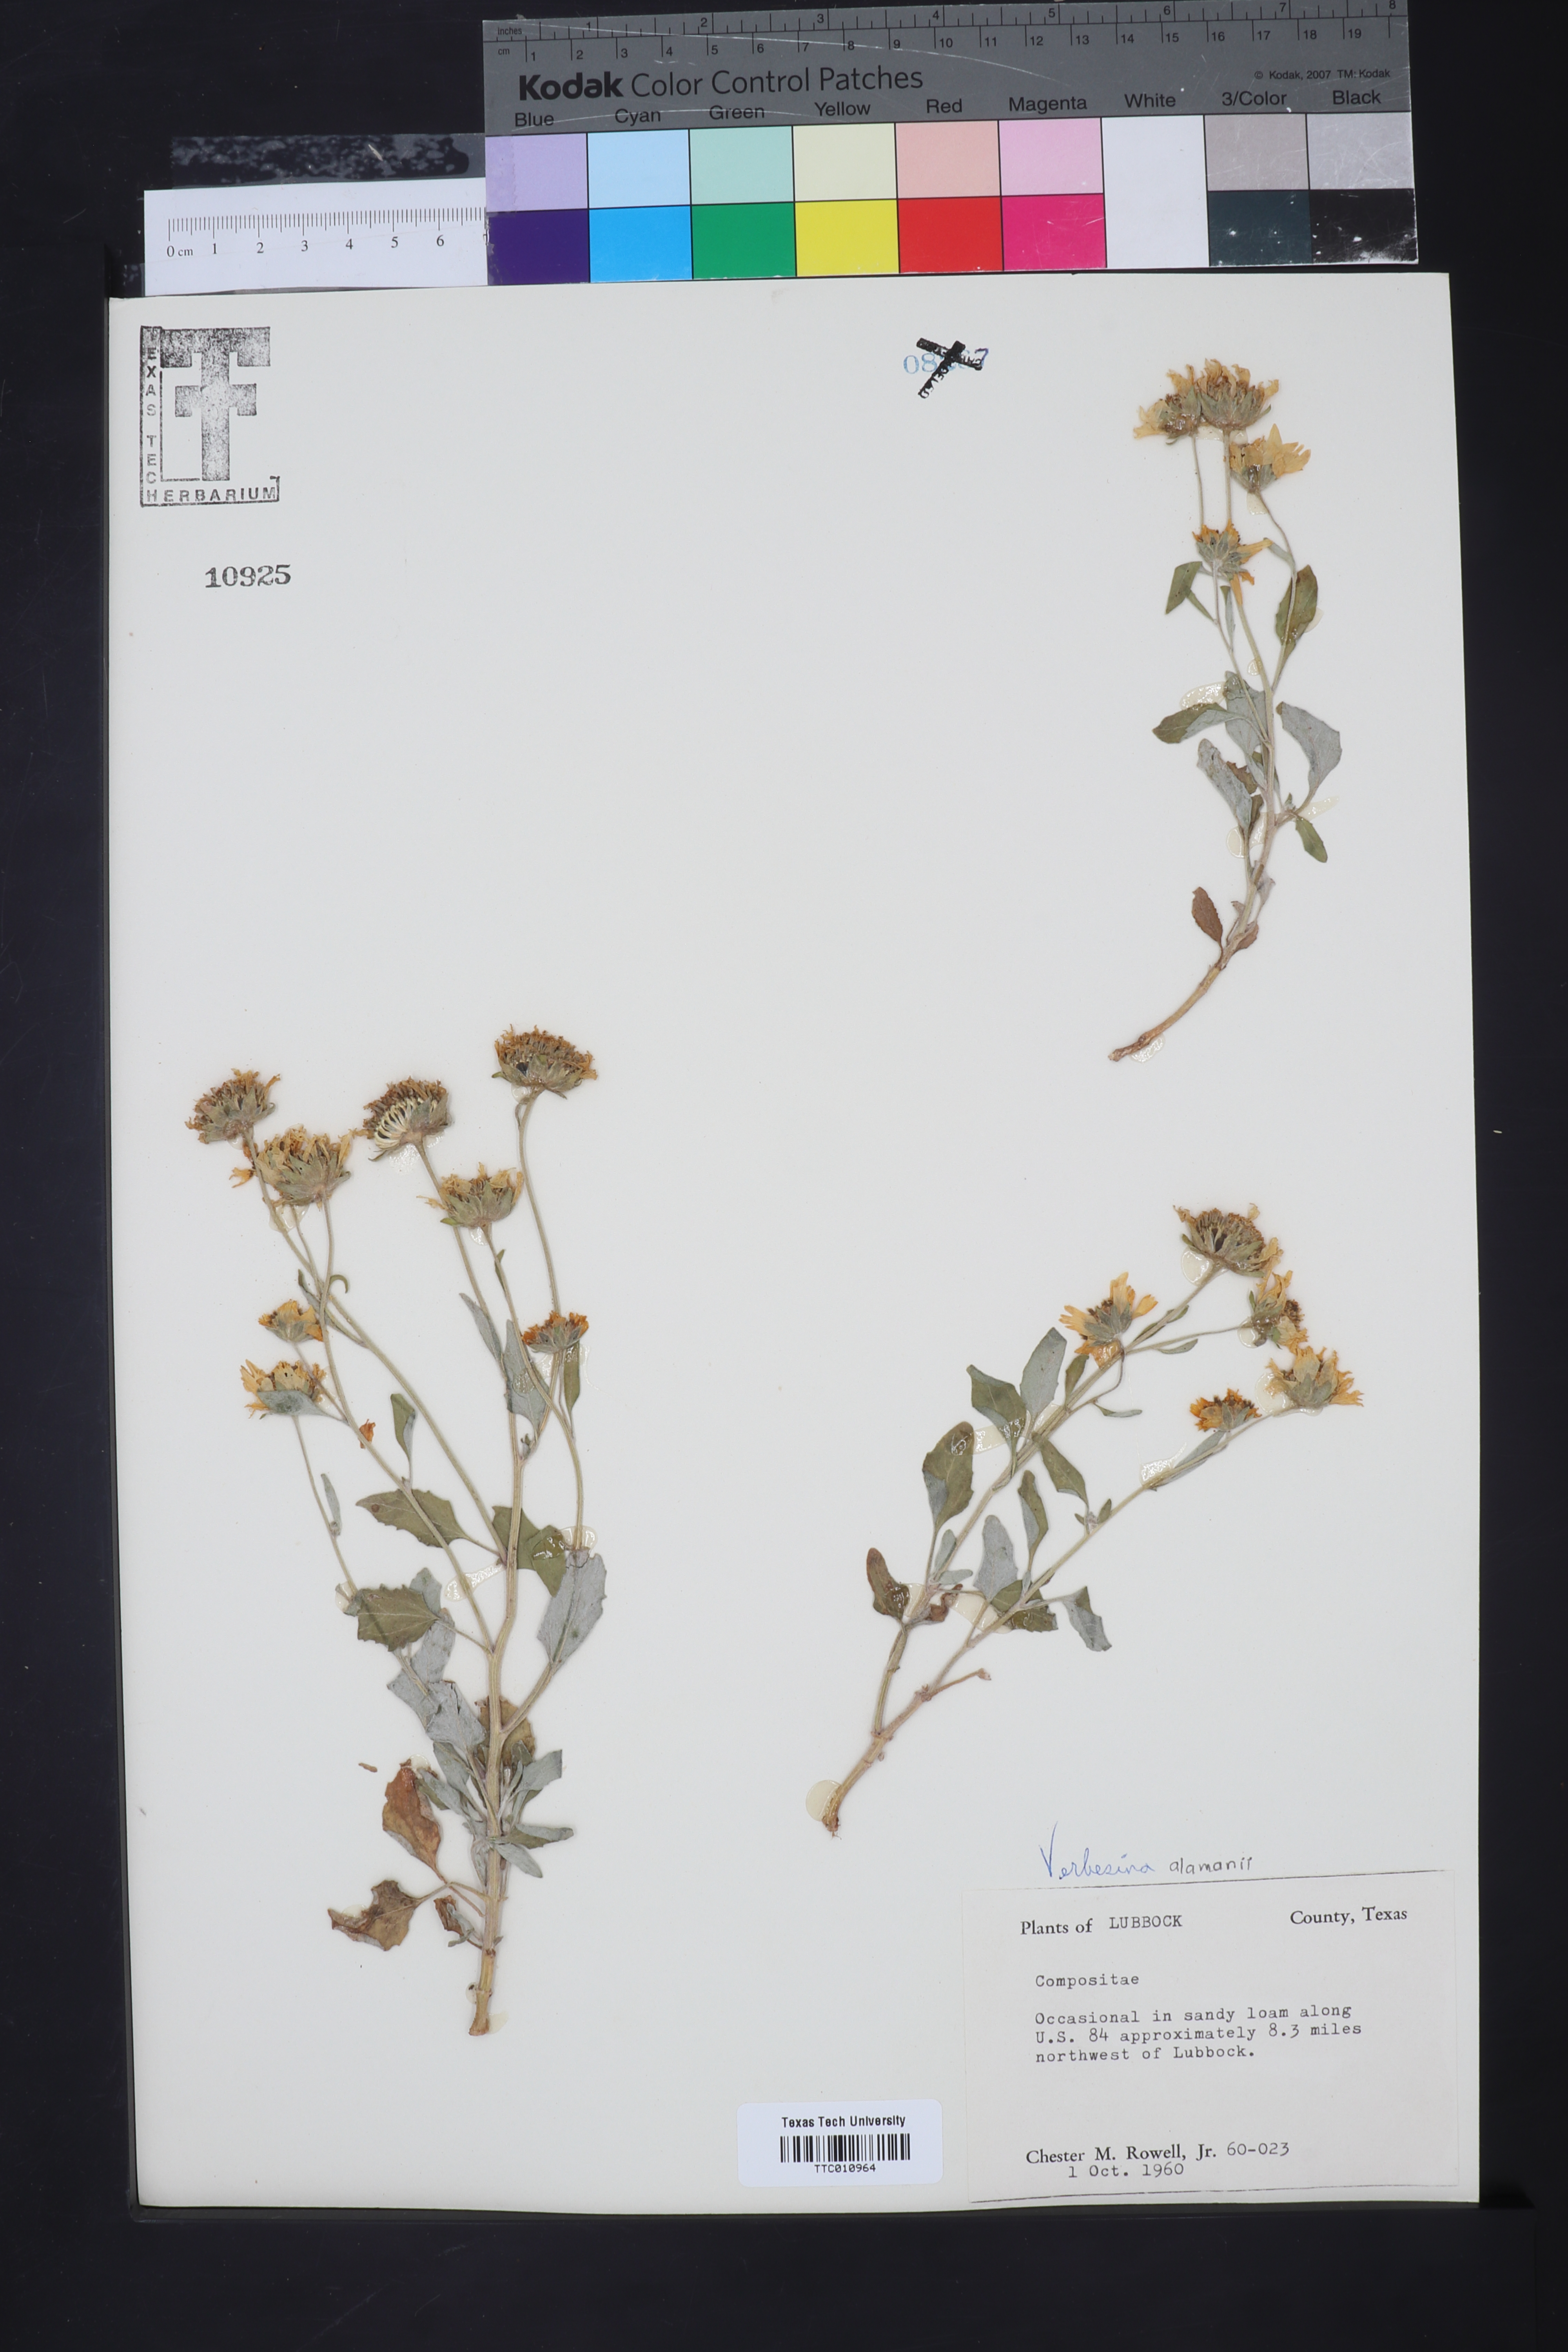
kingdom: Plantae
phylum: Tracheophyta
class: Magnoliopsida
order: Asterales
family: Asteraceae
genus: Verbesina
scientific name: Verbesina
